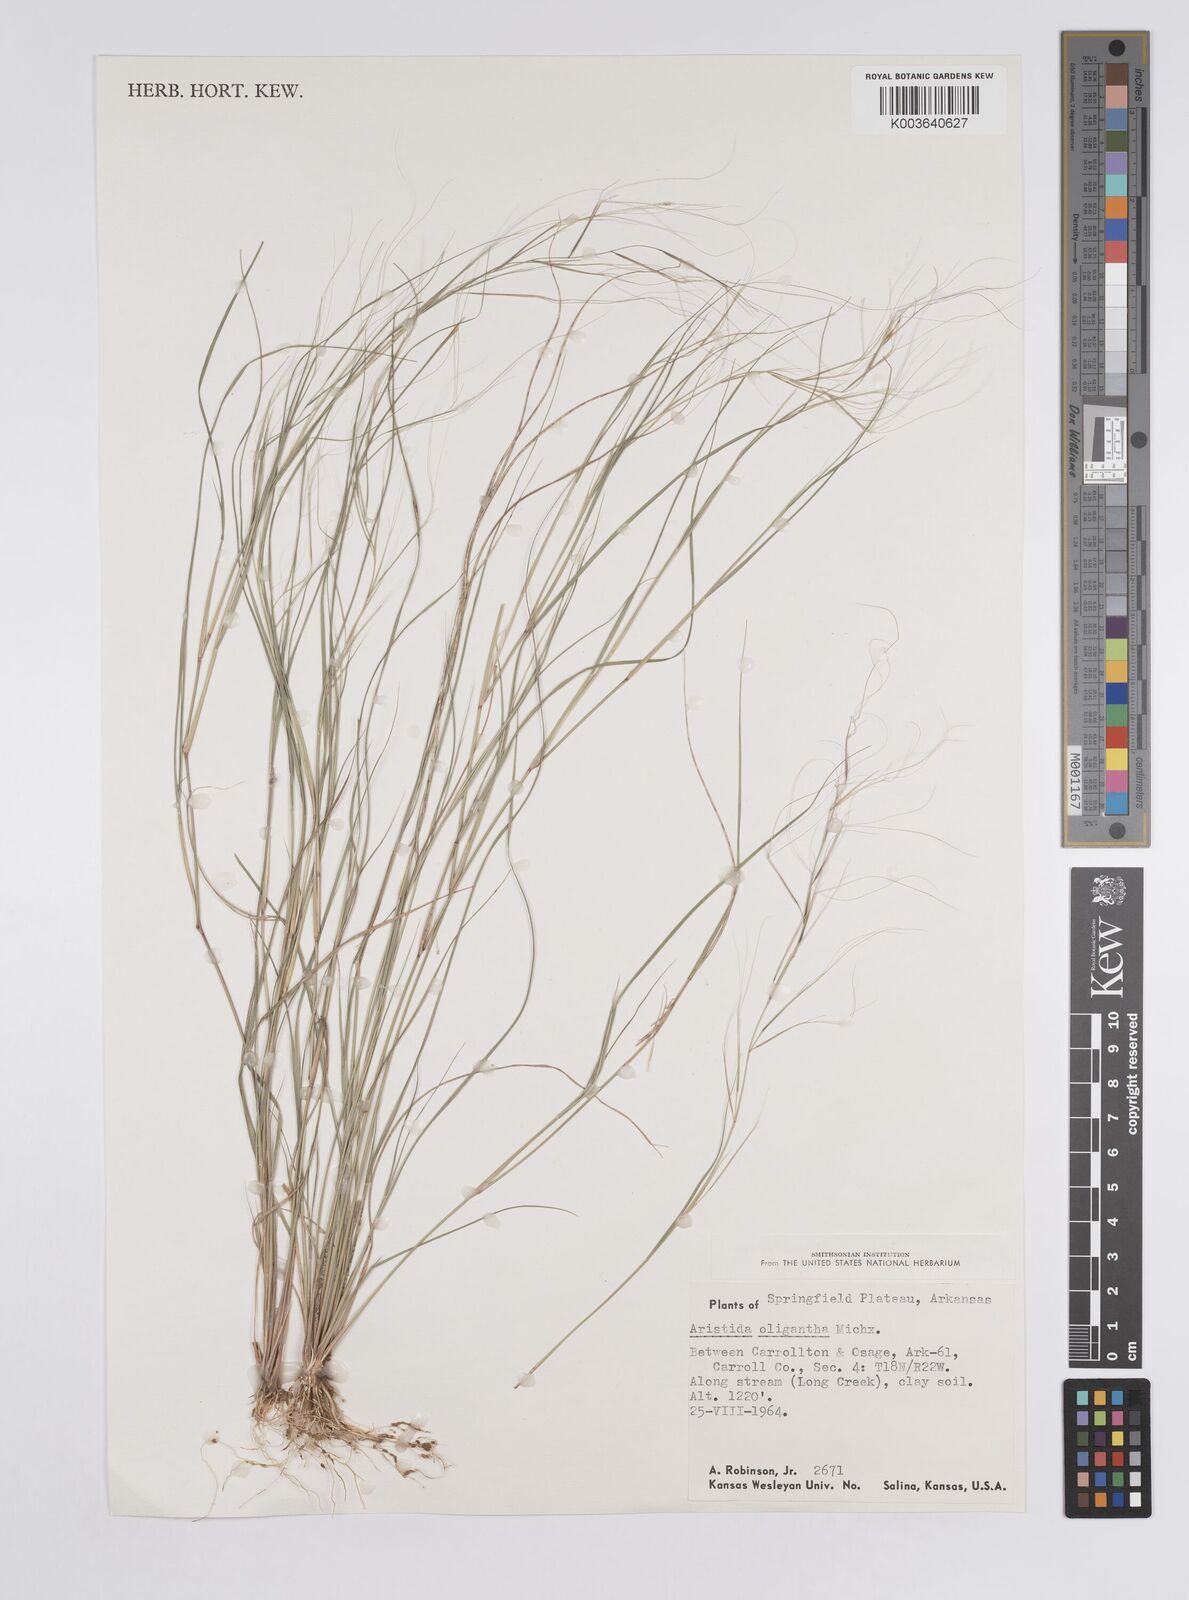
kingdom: Plantae
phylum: Tracheophyta
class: Liliopsida
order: Poales
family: Poaceae
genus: Aristida
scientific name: Aristida oligantha
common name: Few-flowered aristida
